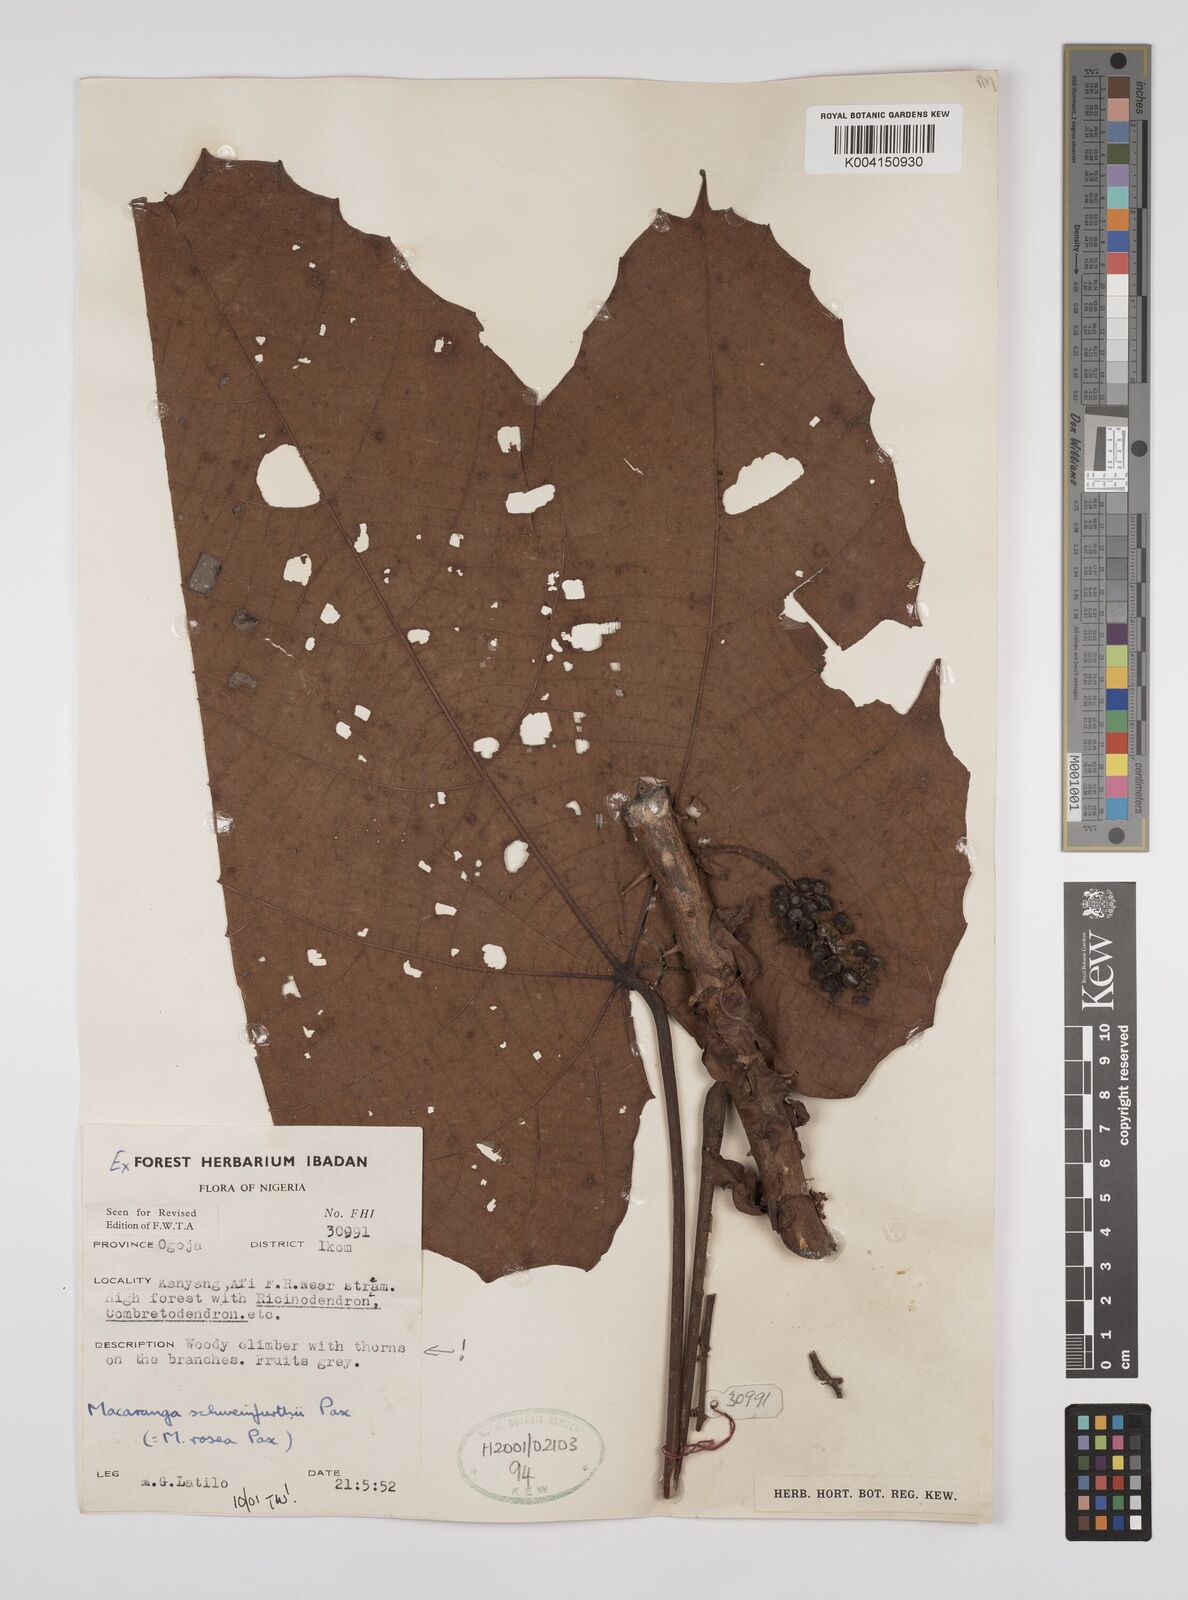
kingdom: Plantae
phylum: Tracheophyta
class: Magnoliopsida
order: Malpighiales
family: Euphorbiaceae
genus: Macaranga
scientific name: Macaranga schweinfurthii
